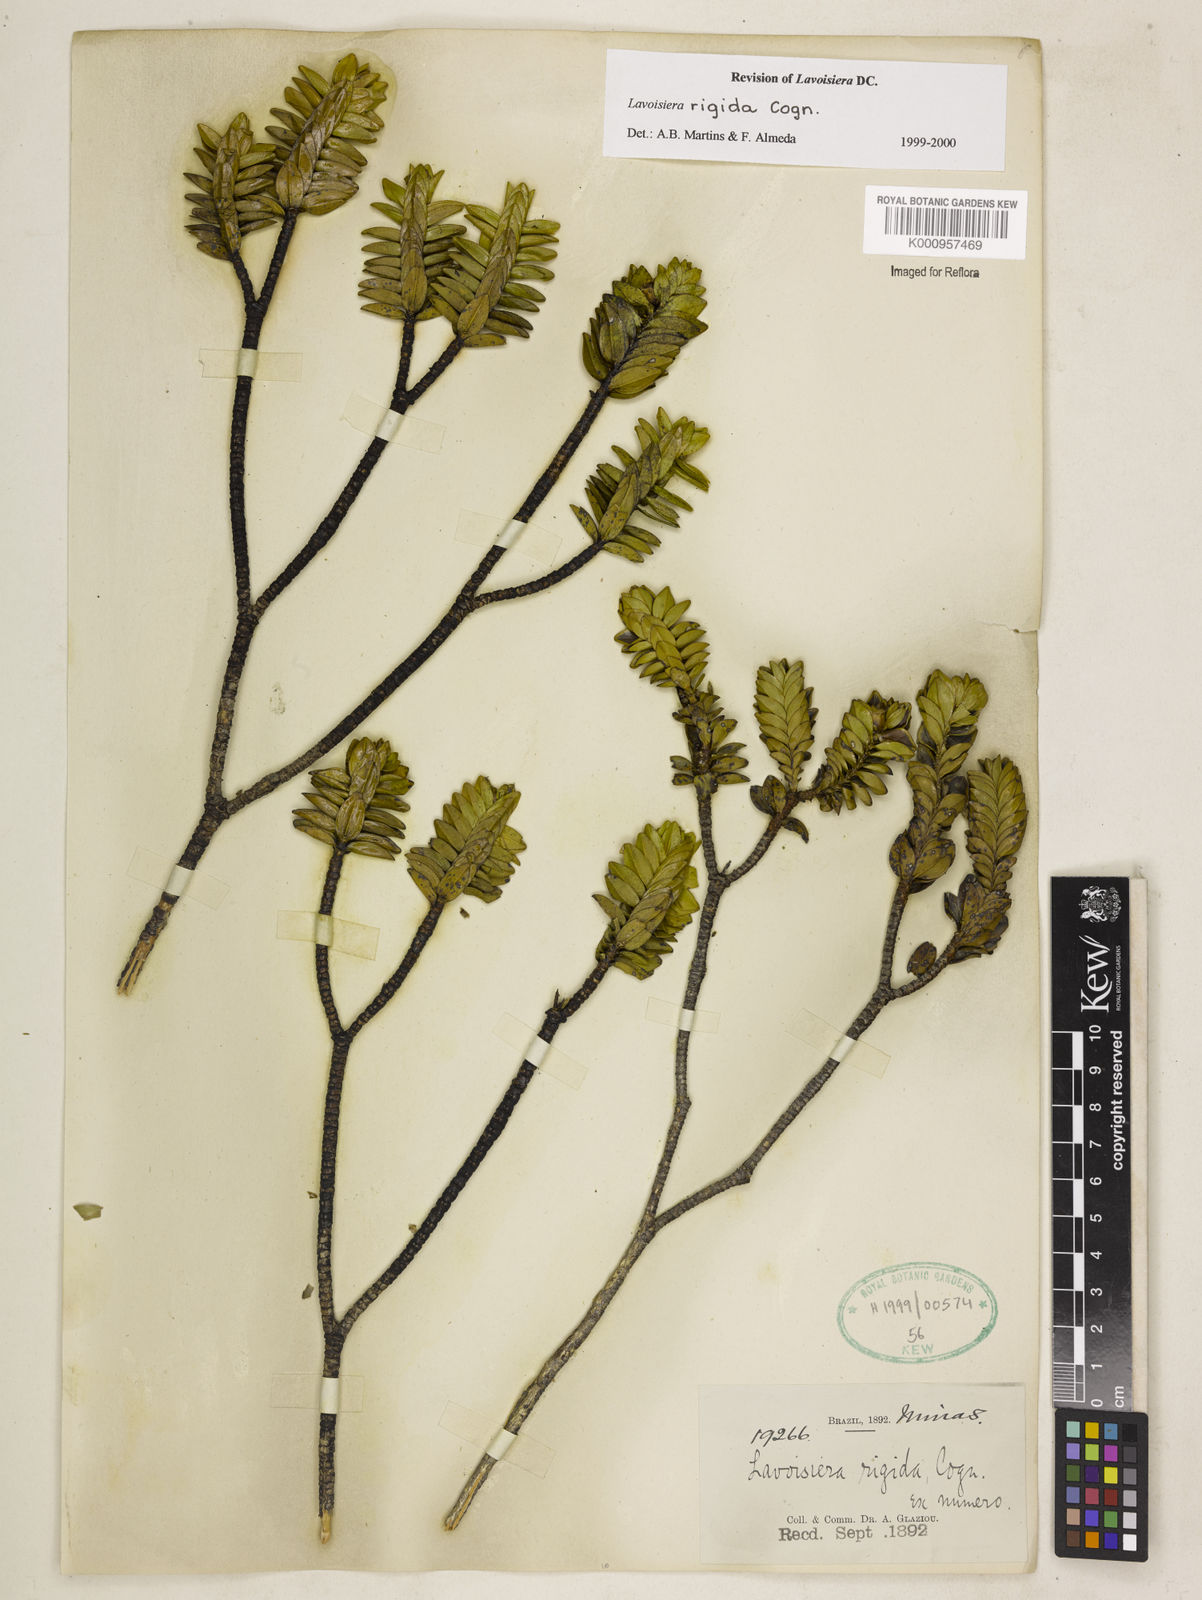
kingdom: Plantae
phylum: Tracheophyta
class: Magnoliopsida
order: Myrtales
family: Melastomataceae
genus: Microlicia
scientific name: Microlicia rigida
